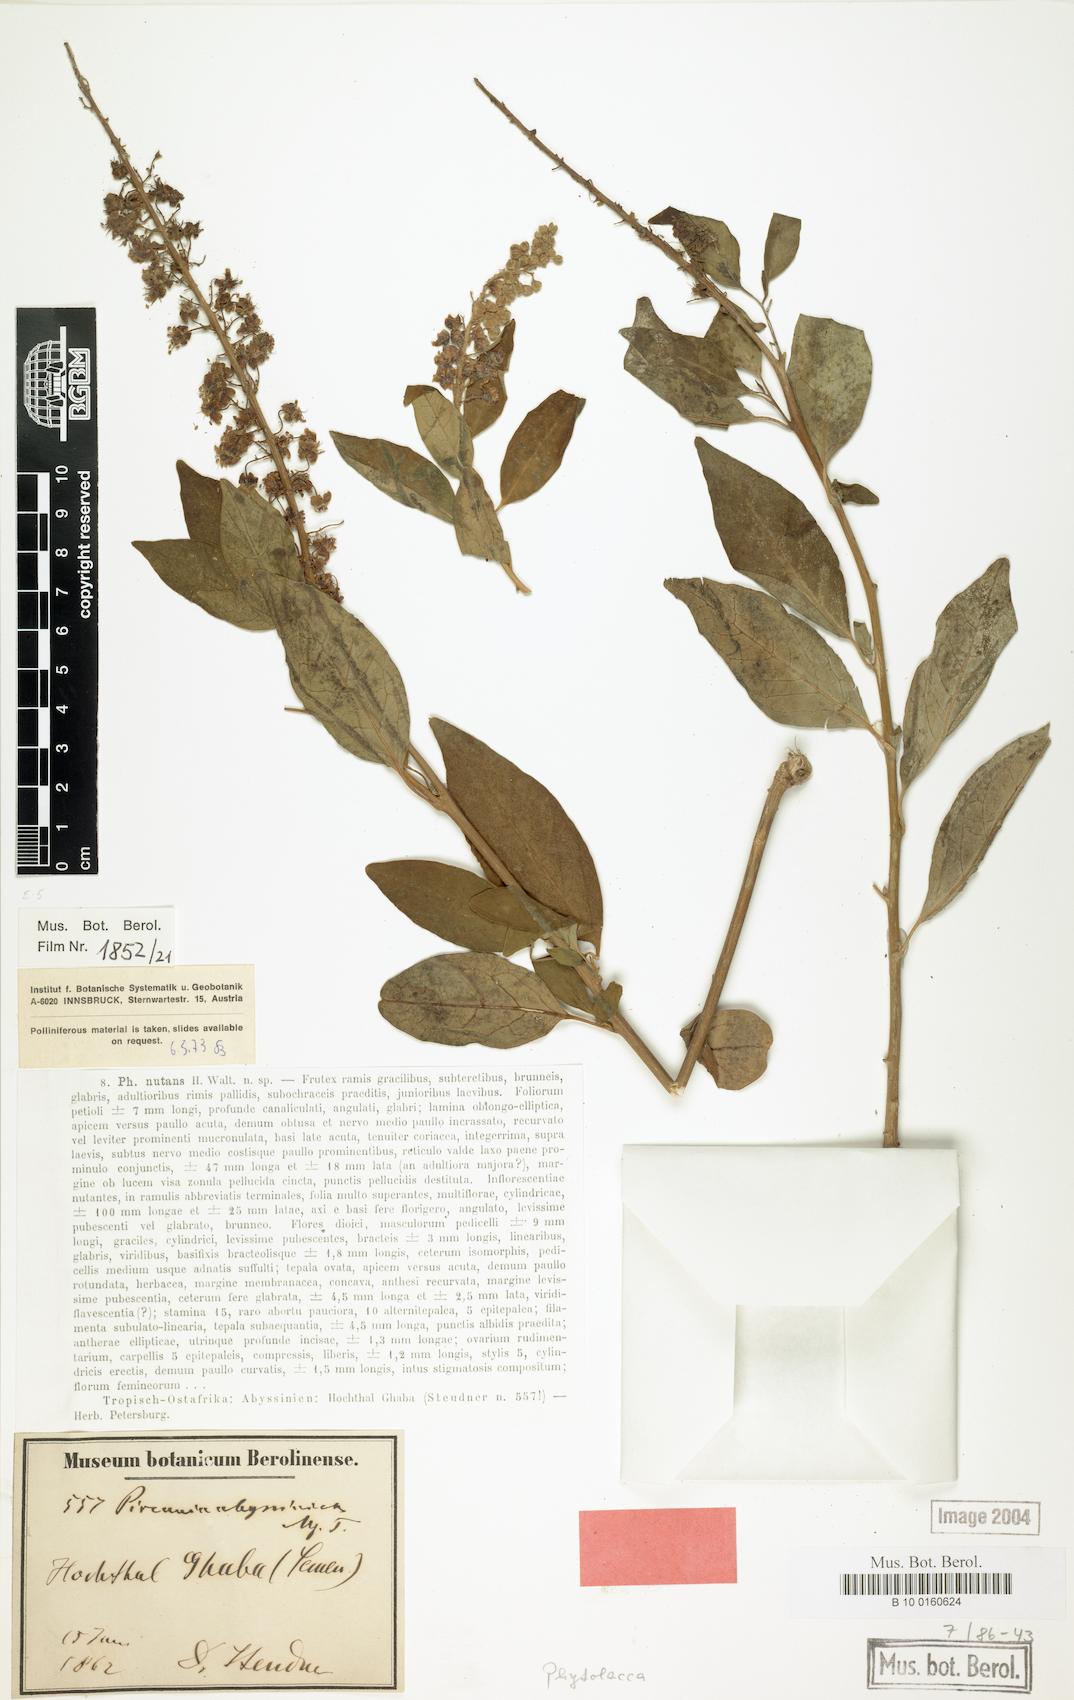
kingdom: Plantae
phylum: Tracheophyta
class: Magnoliopsida
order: Caryophyllales
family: Phytolaccaceae
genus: Phytolacca
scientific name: Phytolacca dodecandra
